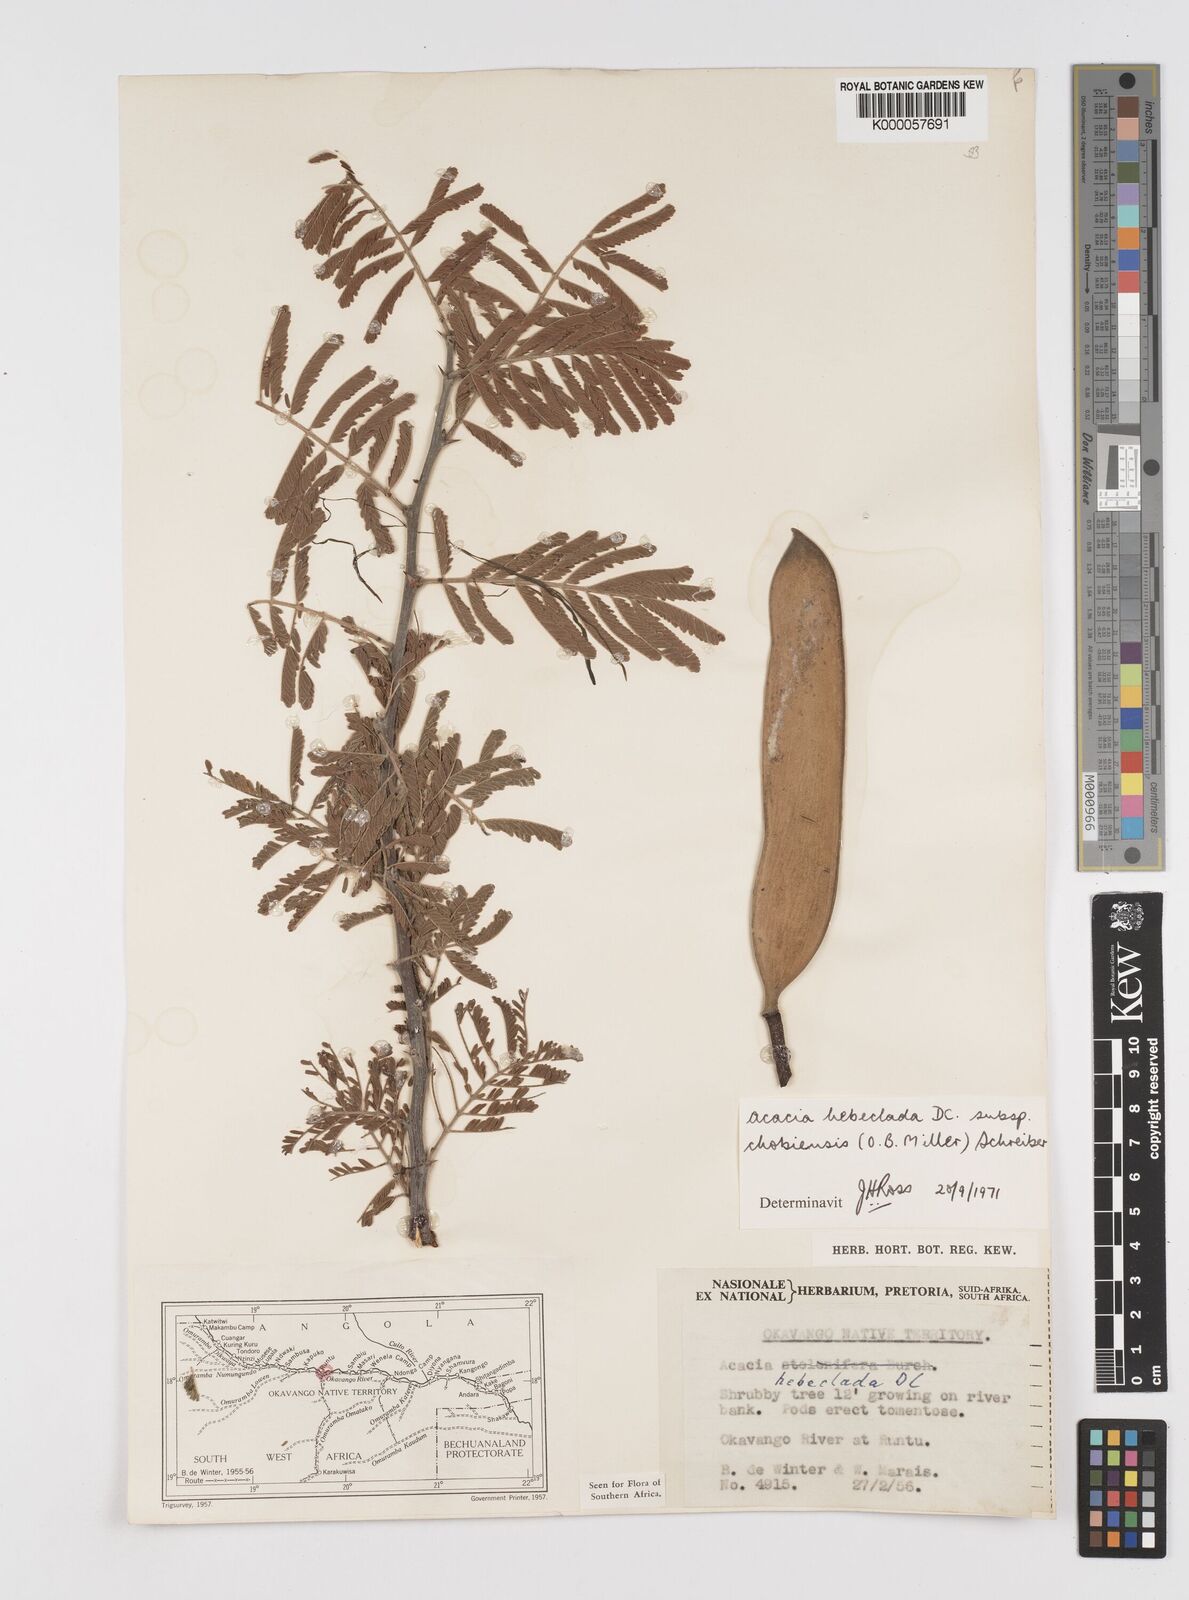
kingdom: Plantae
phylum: Tracheophyta
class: Magnoliopsida
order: Fabales
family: Fabaceae
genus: Vachellia
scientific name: Vachellia hebeclada
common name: Candle thorn
